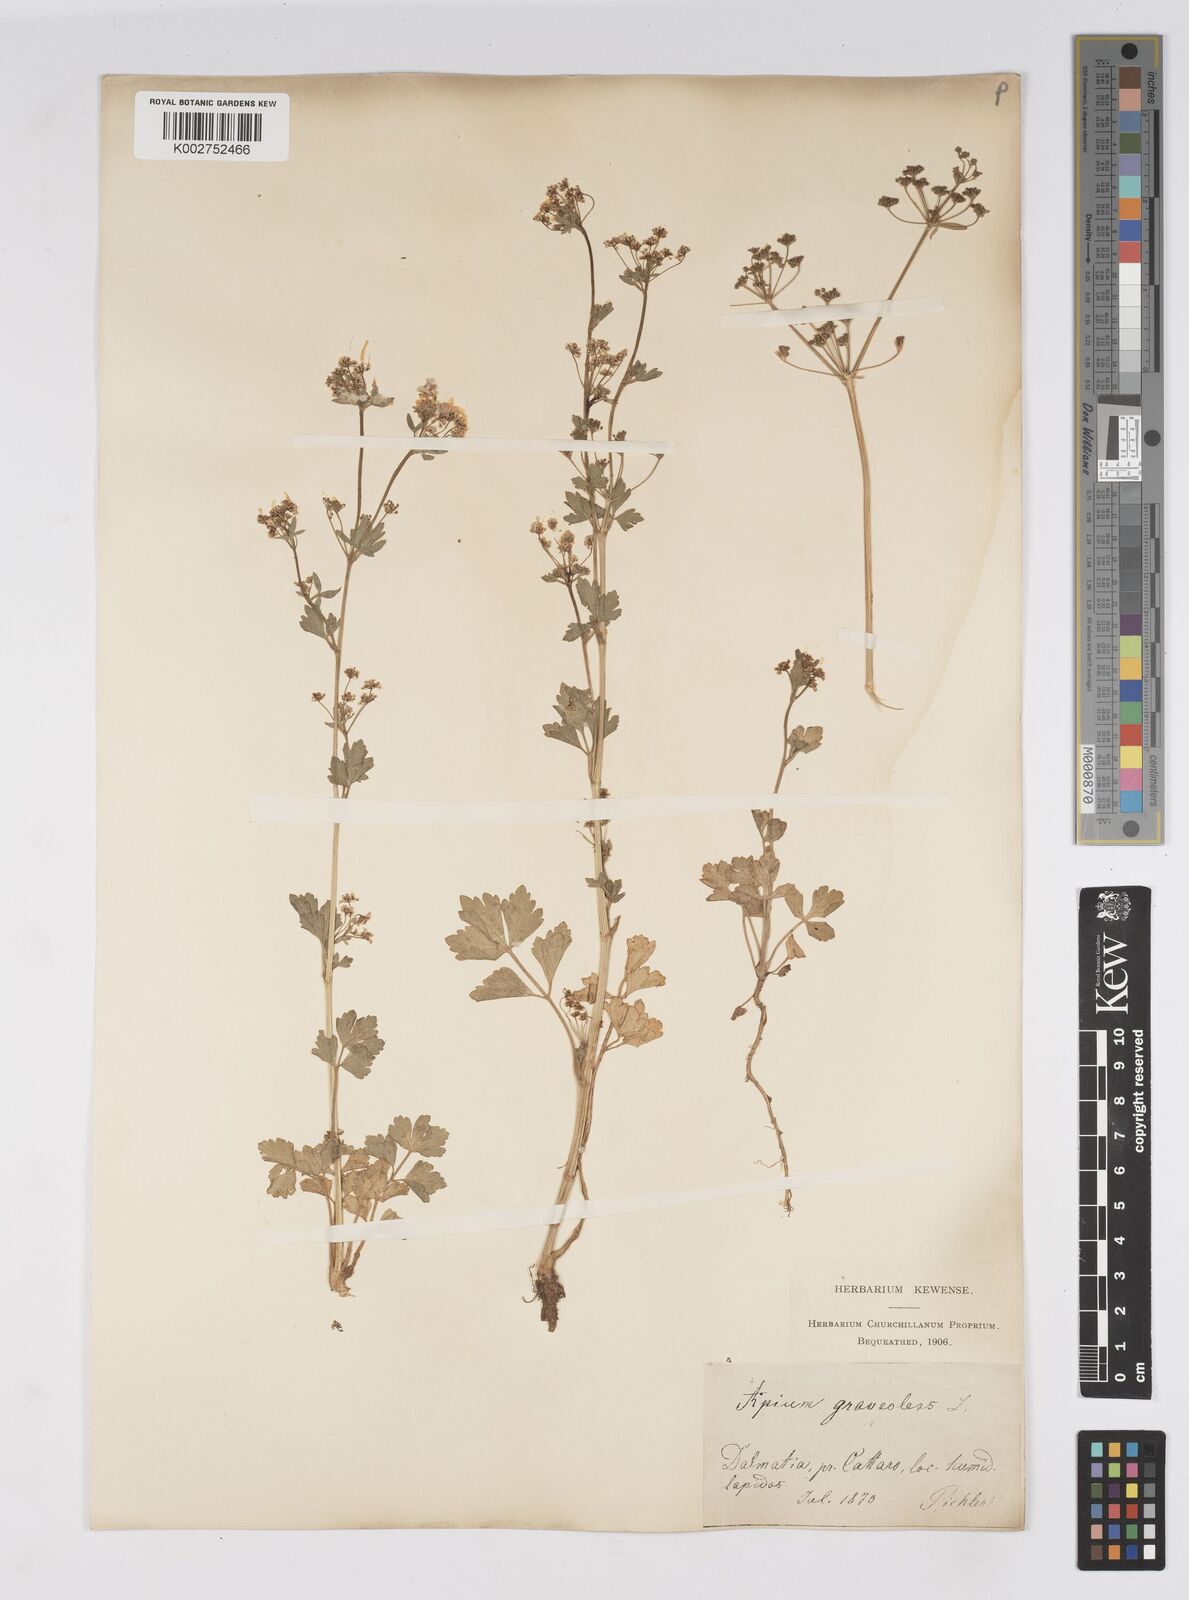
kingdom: Plantae
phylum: Tracheophyta
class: Magnoliopsida
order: Apiales
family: Apiaceae
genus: Apium
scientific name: Apium graveolens
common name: Wild celery
